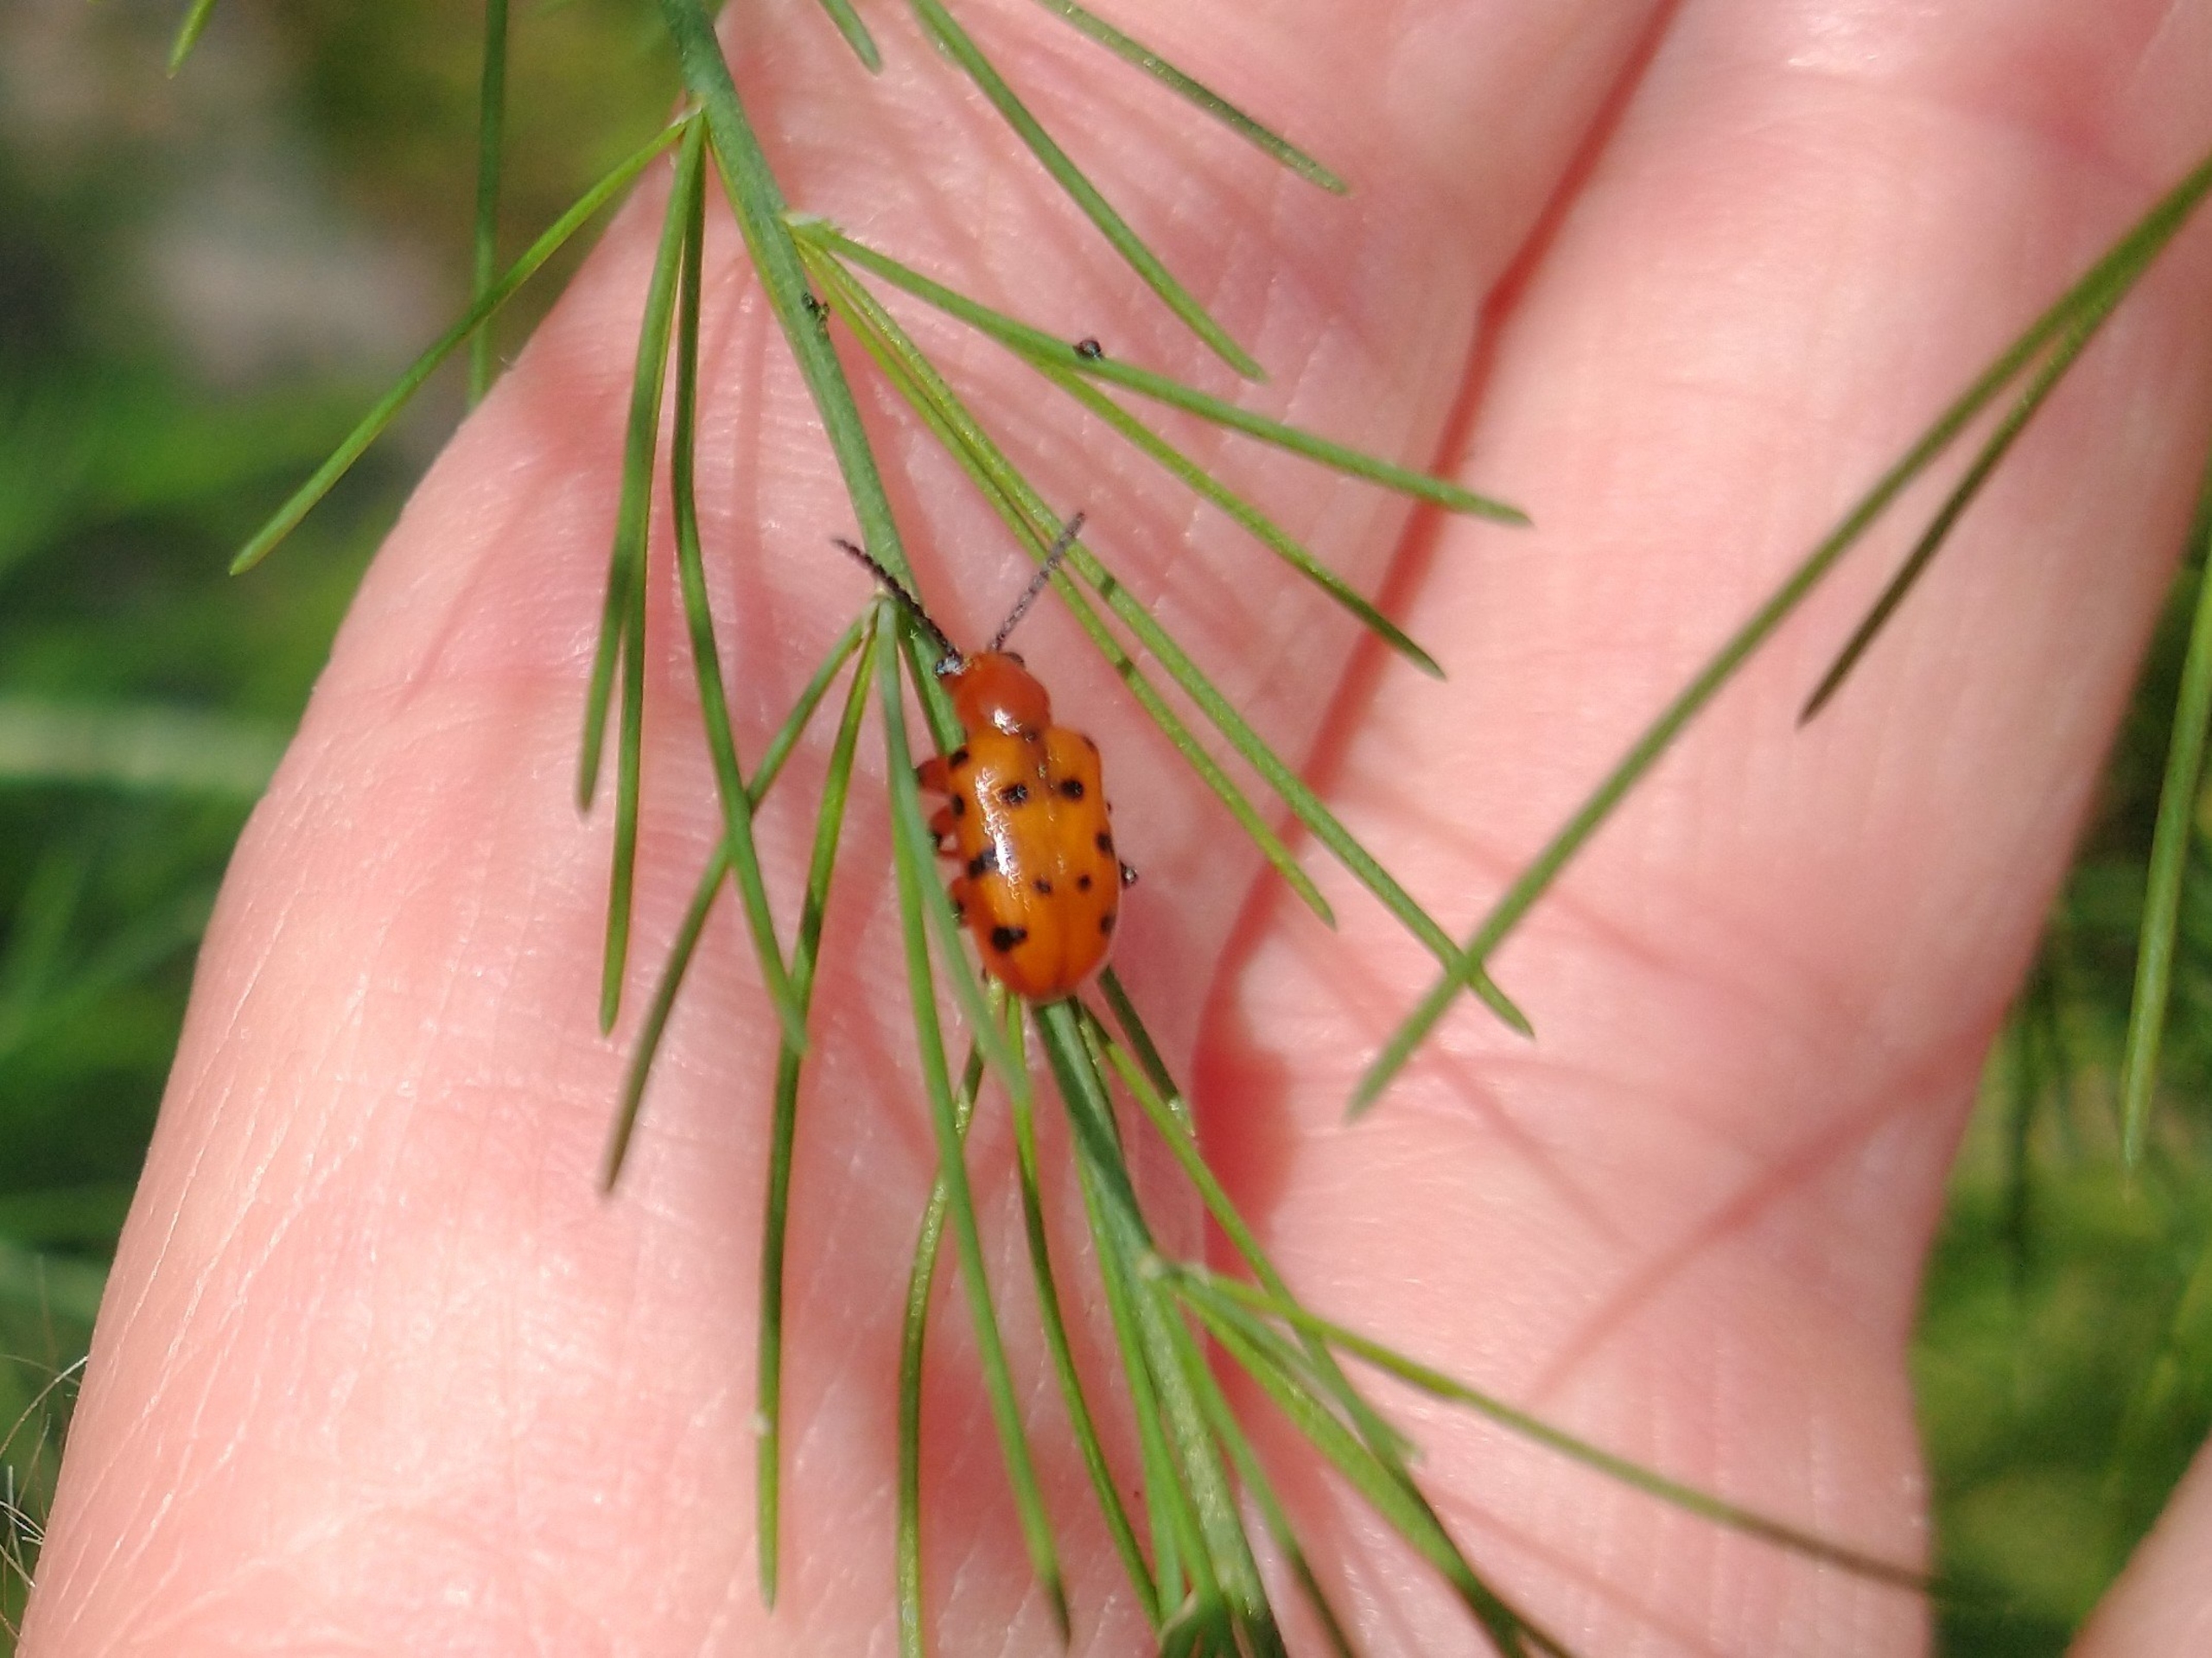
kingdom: Animalia
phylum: Arthropoda
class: Insecta
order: Coleoptera
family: Chrysomelidae
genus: Crioceris
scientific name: Crioceris duodecimpunctata
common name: Tolvplettet aspargesbille
